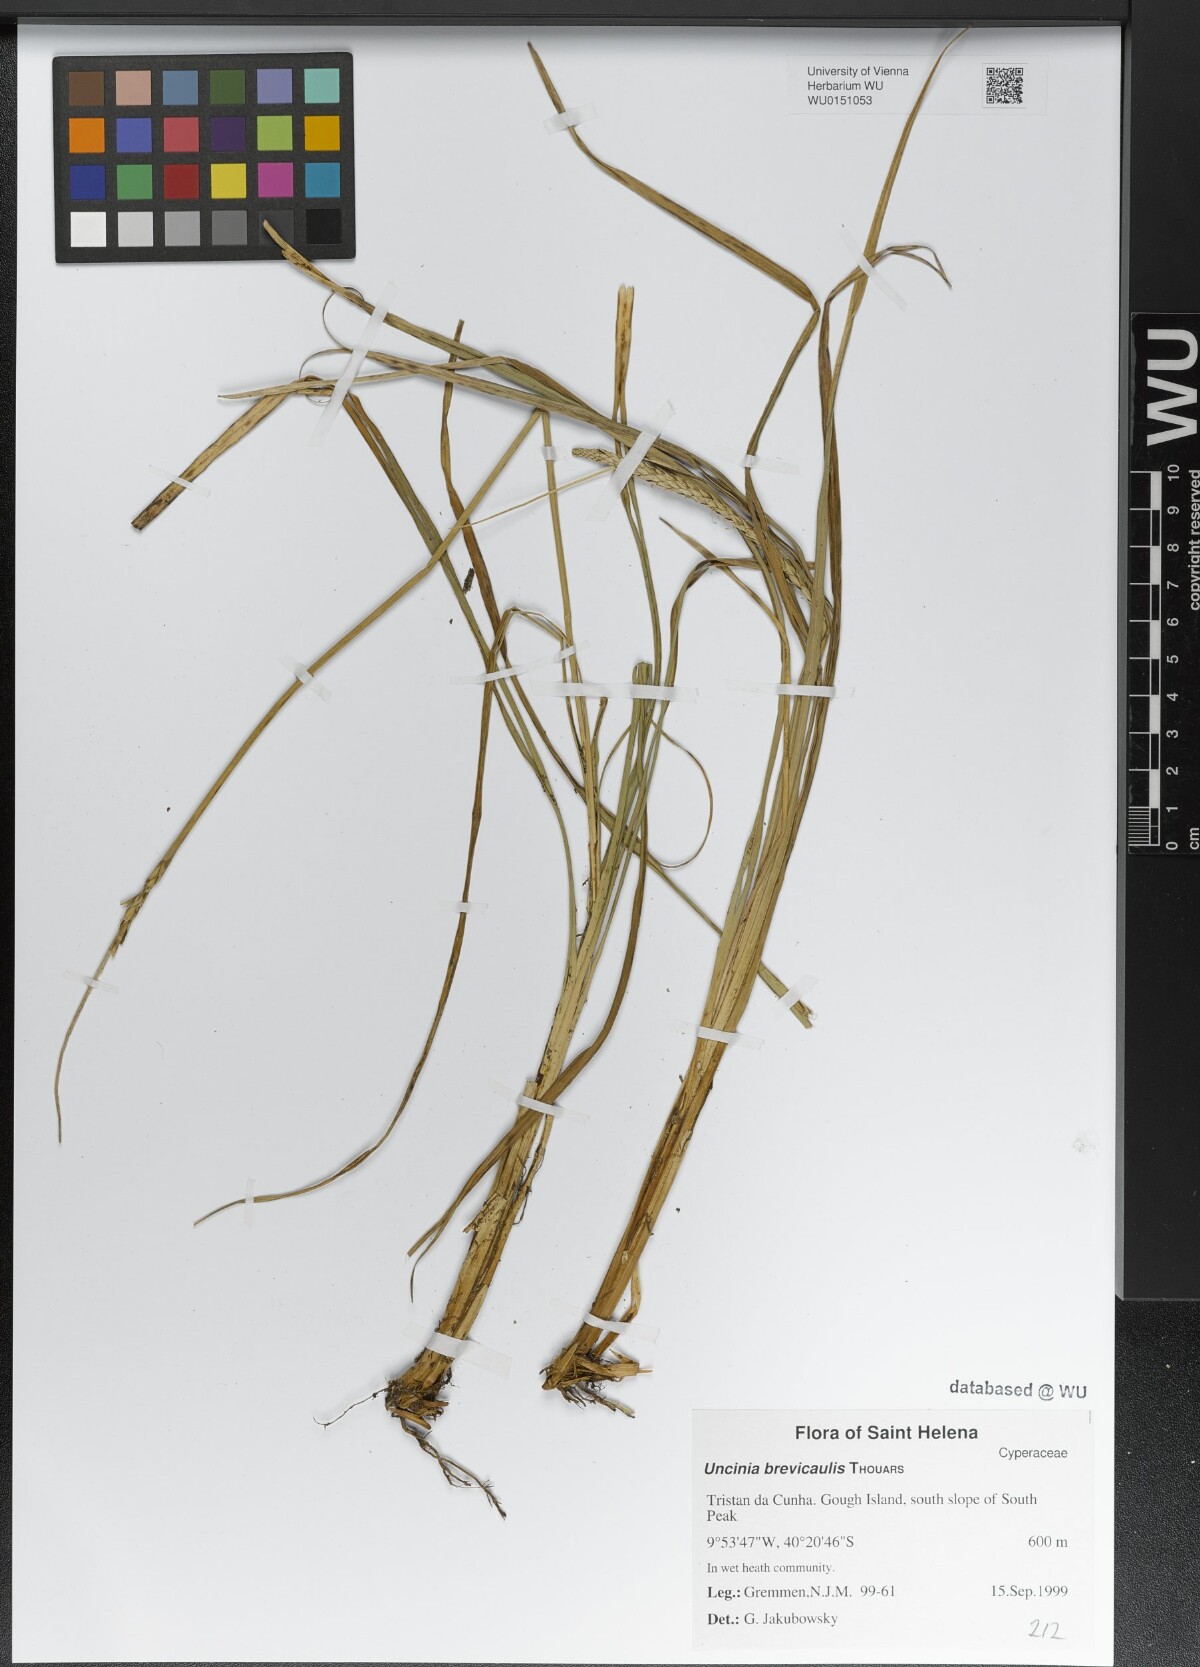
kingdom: Plantae
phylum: Tracheophyta
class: Liliopsida
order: Poales
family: Cyperaceae
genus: Carex
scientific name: Carex Uncinia brevicaulis
